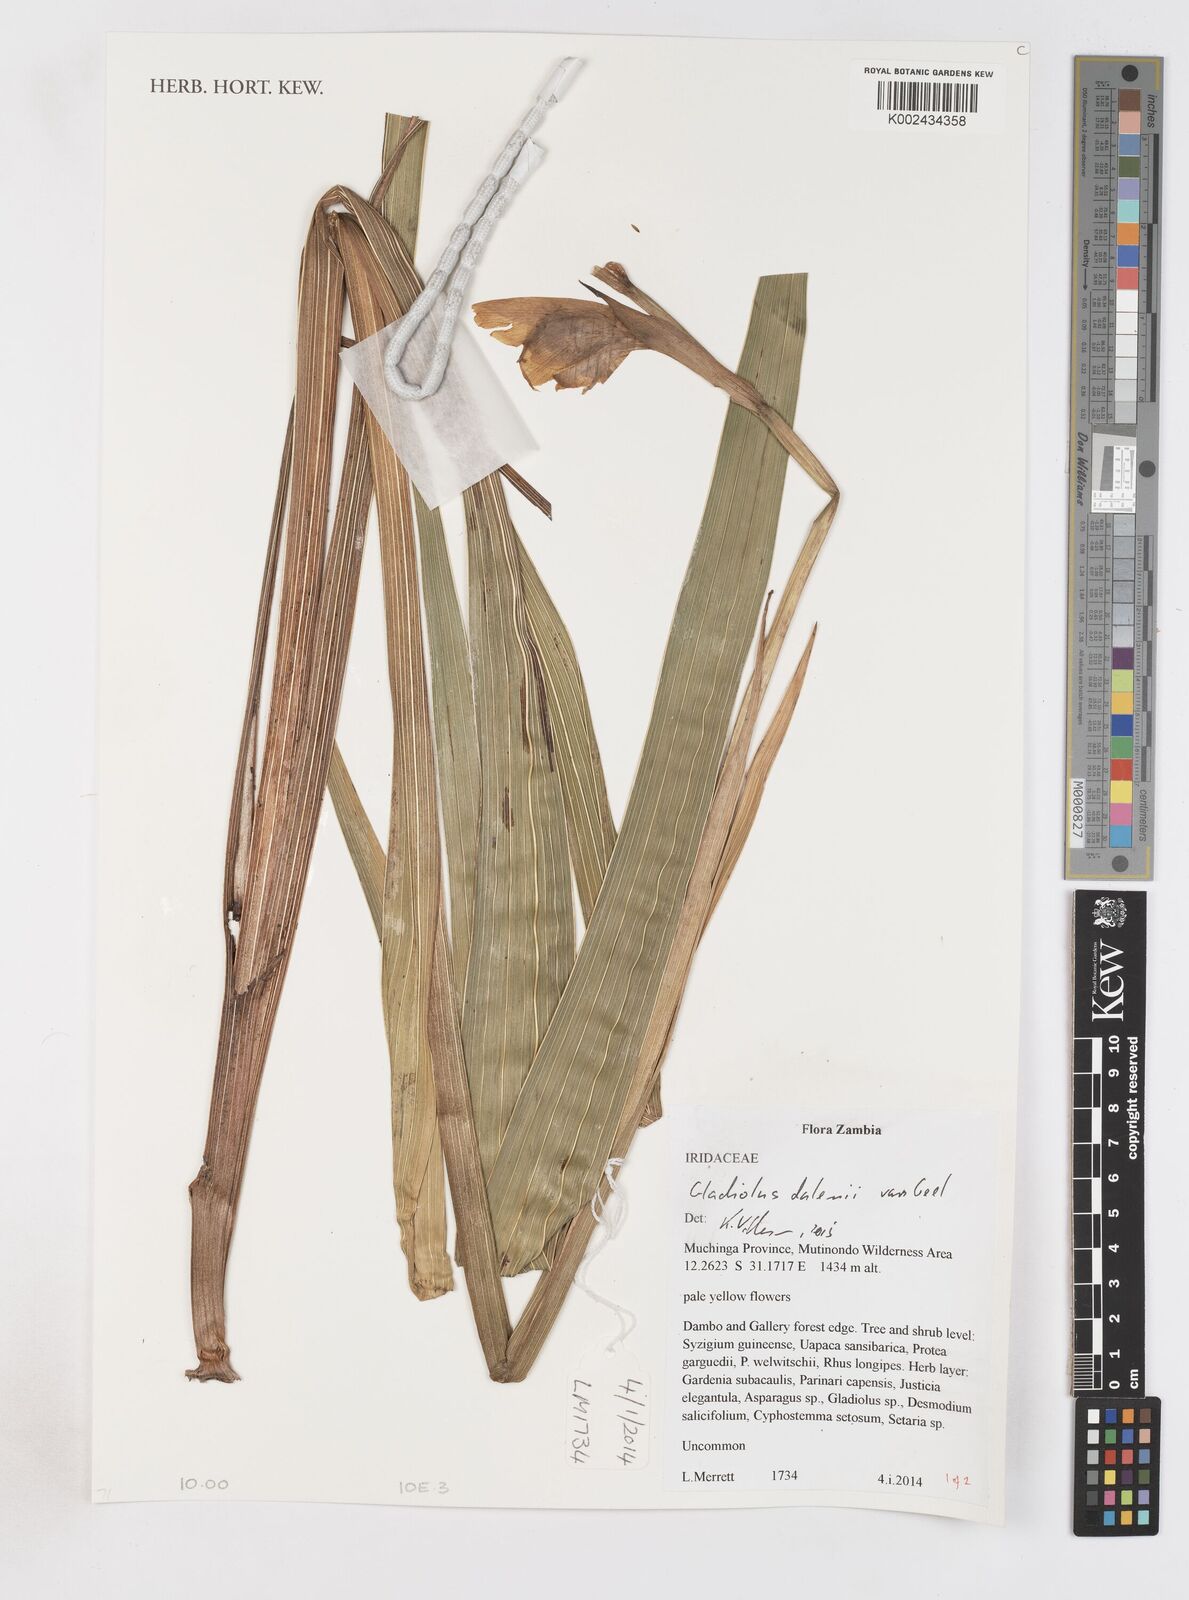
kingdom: Plantae
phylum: Tracheophyta
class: Liliopsida
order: Asparagales
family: Iridaceae
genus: Gladiolus
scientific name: Gladiolus dalenii
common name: Cornflag
